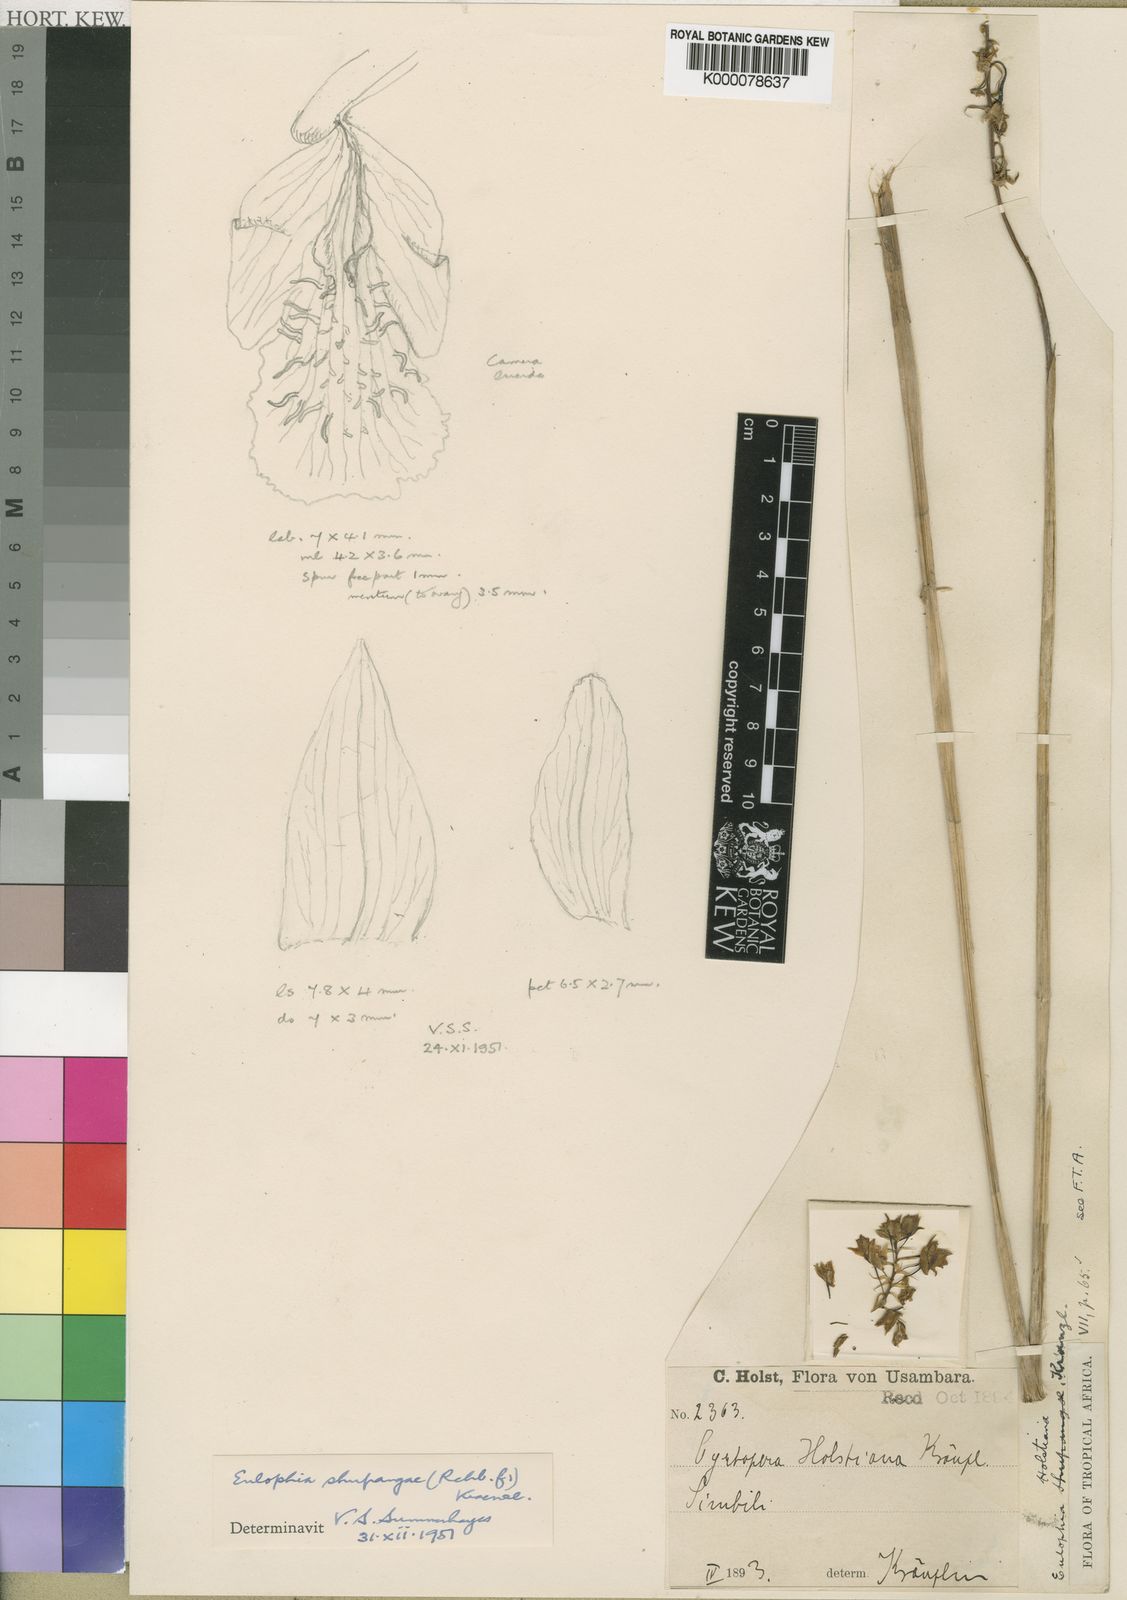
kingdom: Plantae
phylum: Tracheophyta
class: Liliopsida
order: Asparagales
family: Orchidaceae
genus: Eulophia
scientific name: Eulophia odontoglossa
